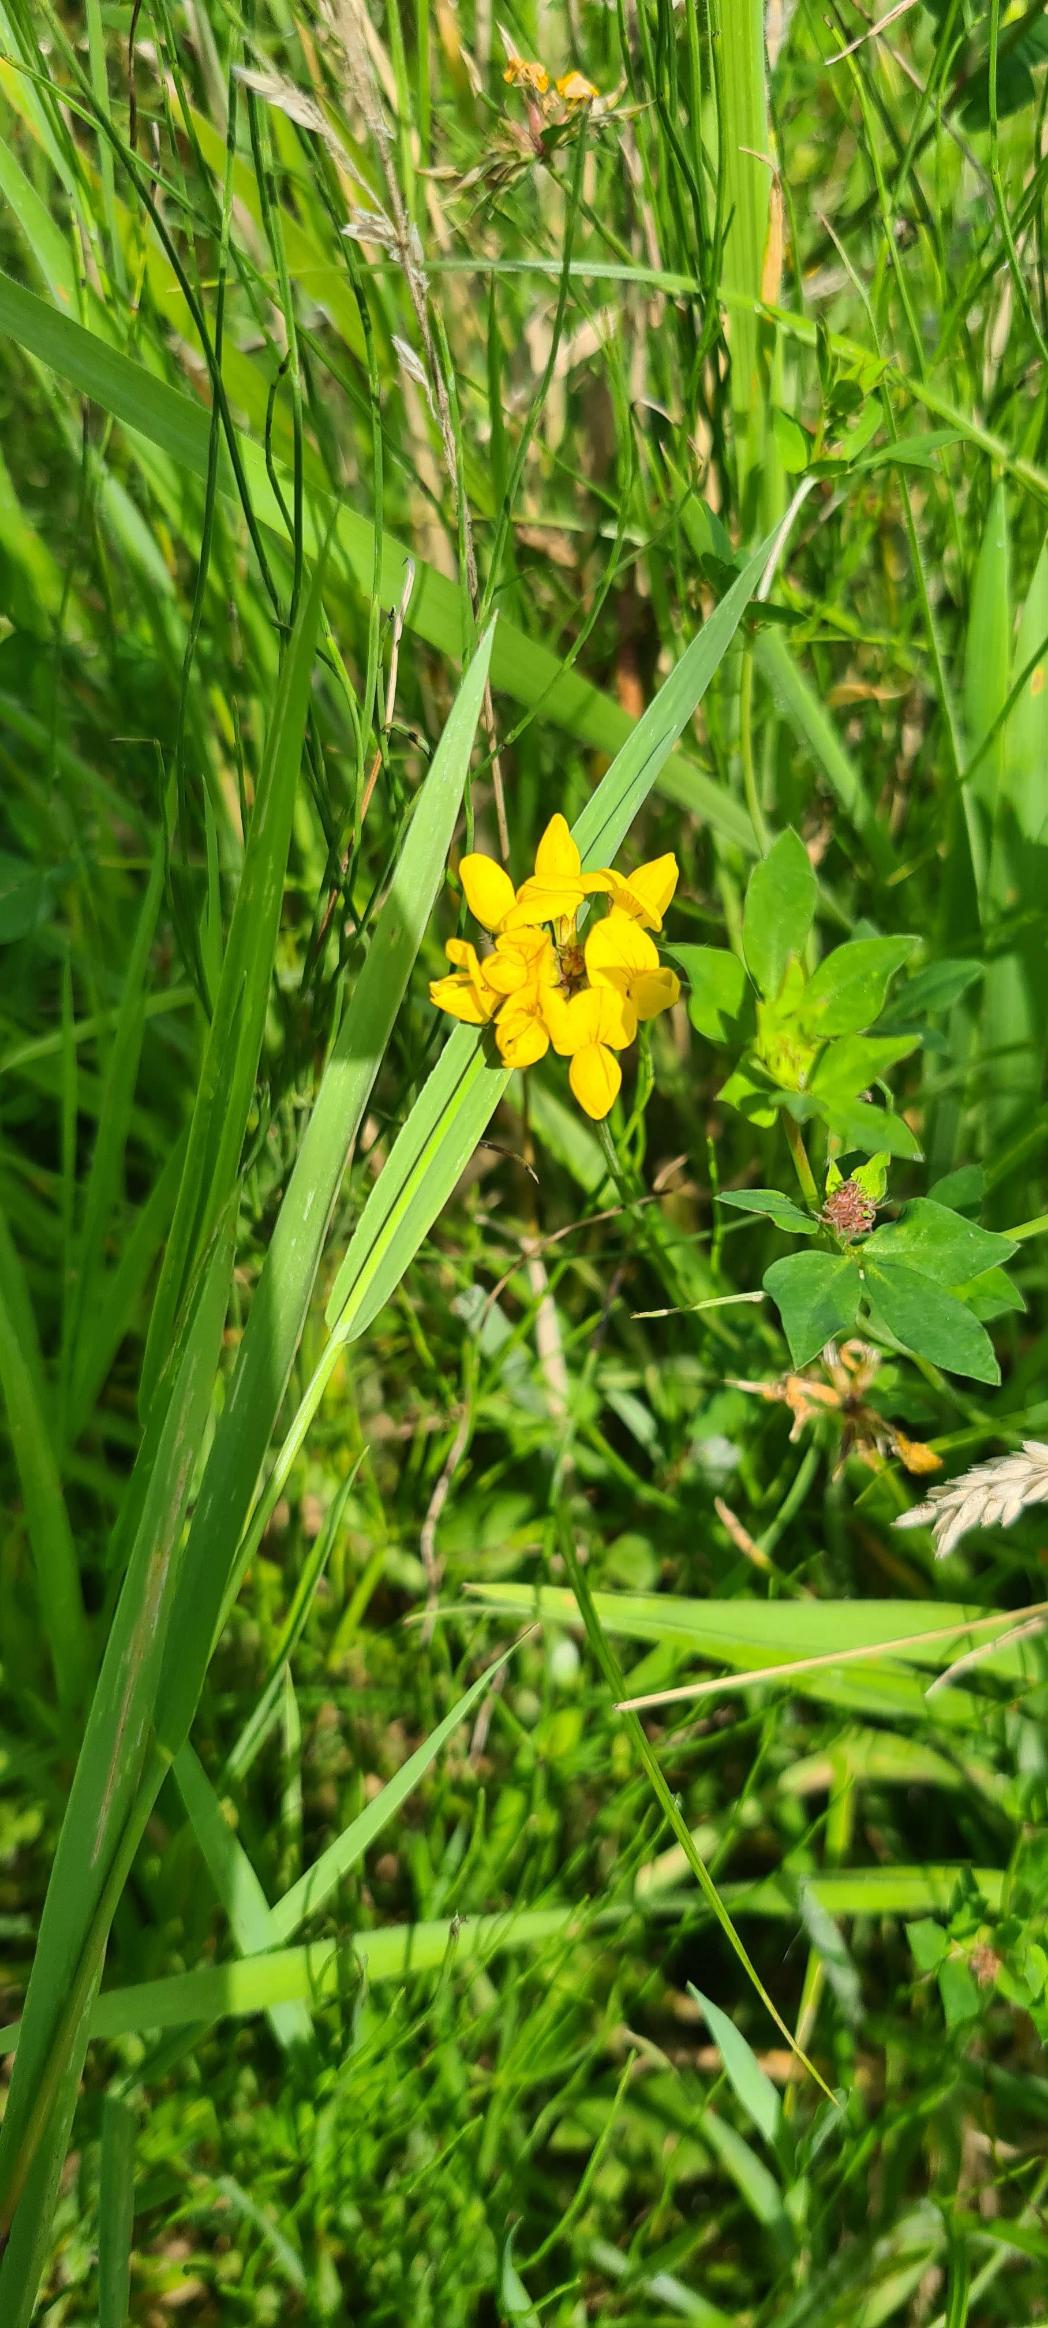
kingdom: Plantae
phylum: Tracheophyta
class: Magnoliopsida
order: Fabales
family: Fabaceae
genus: Lotus
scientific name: Lotus pedunculatus
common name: Sump-kællingetand
